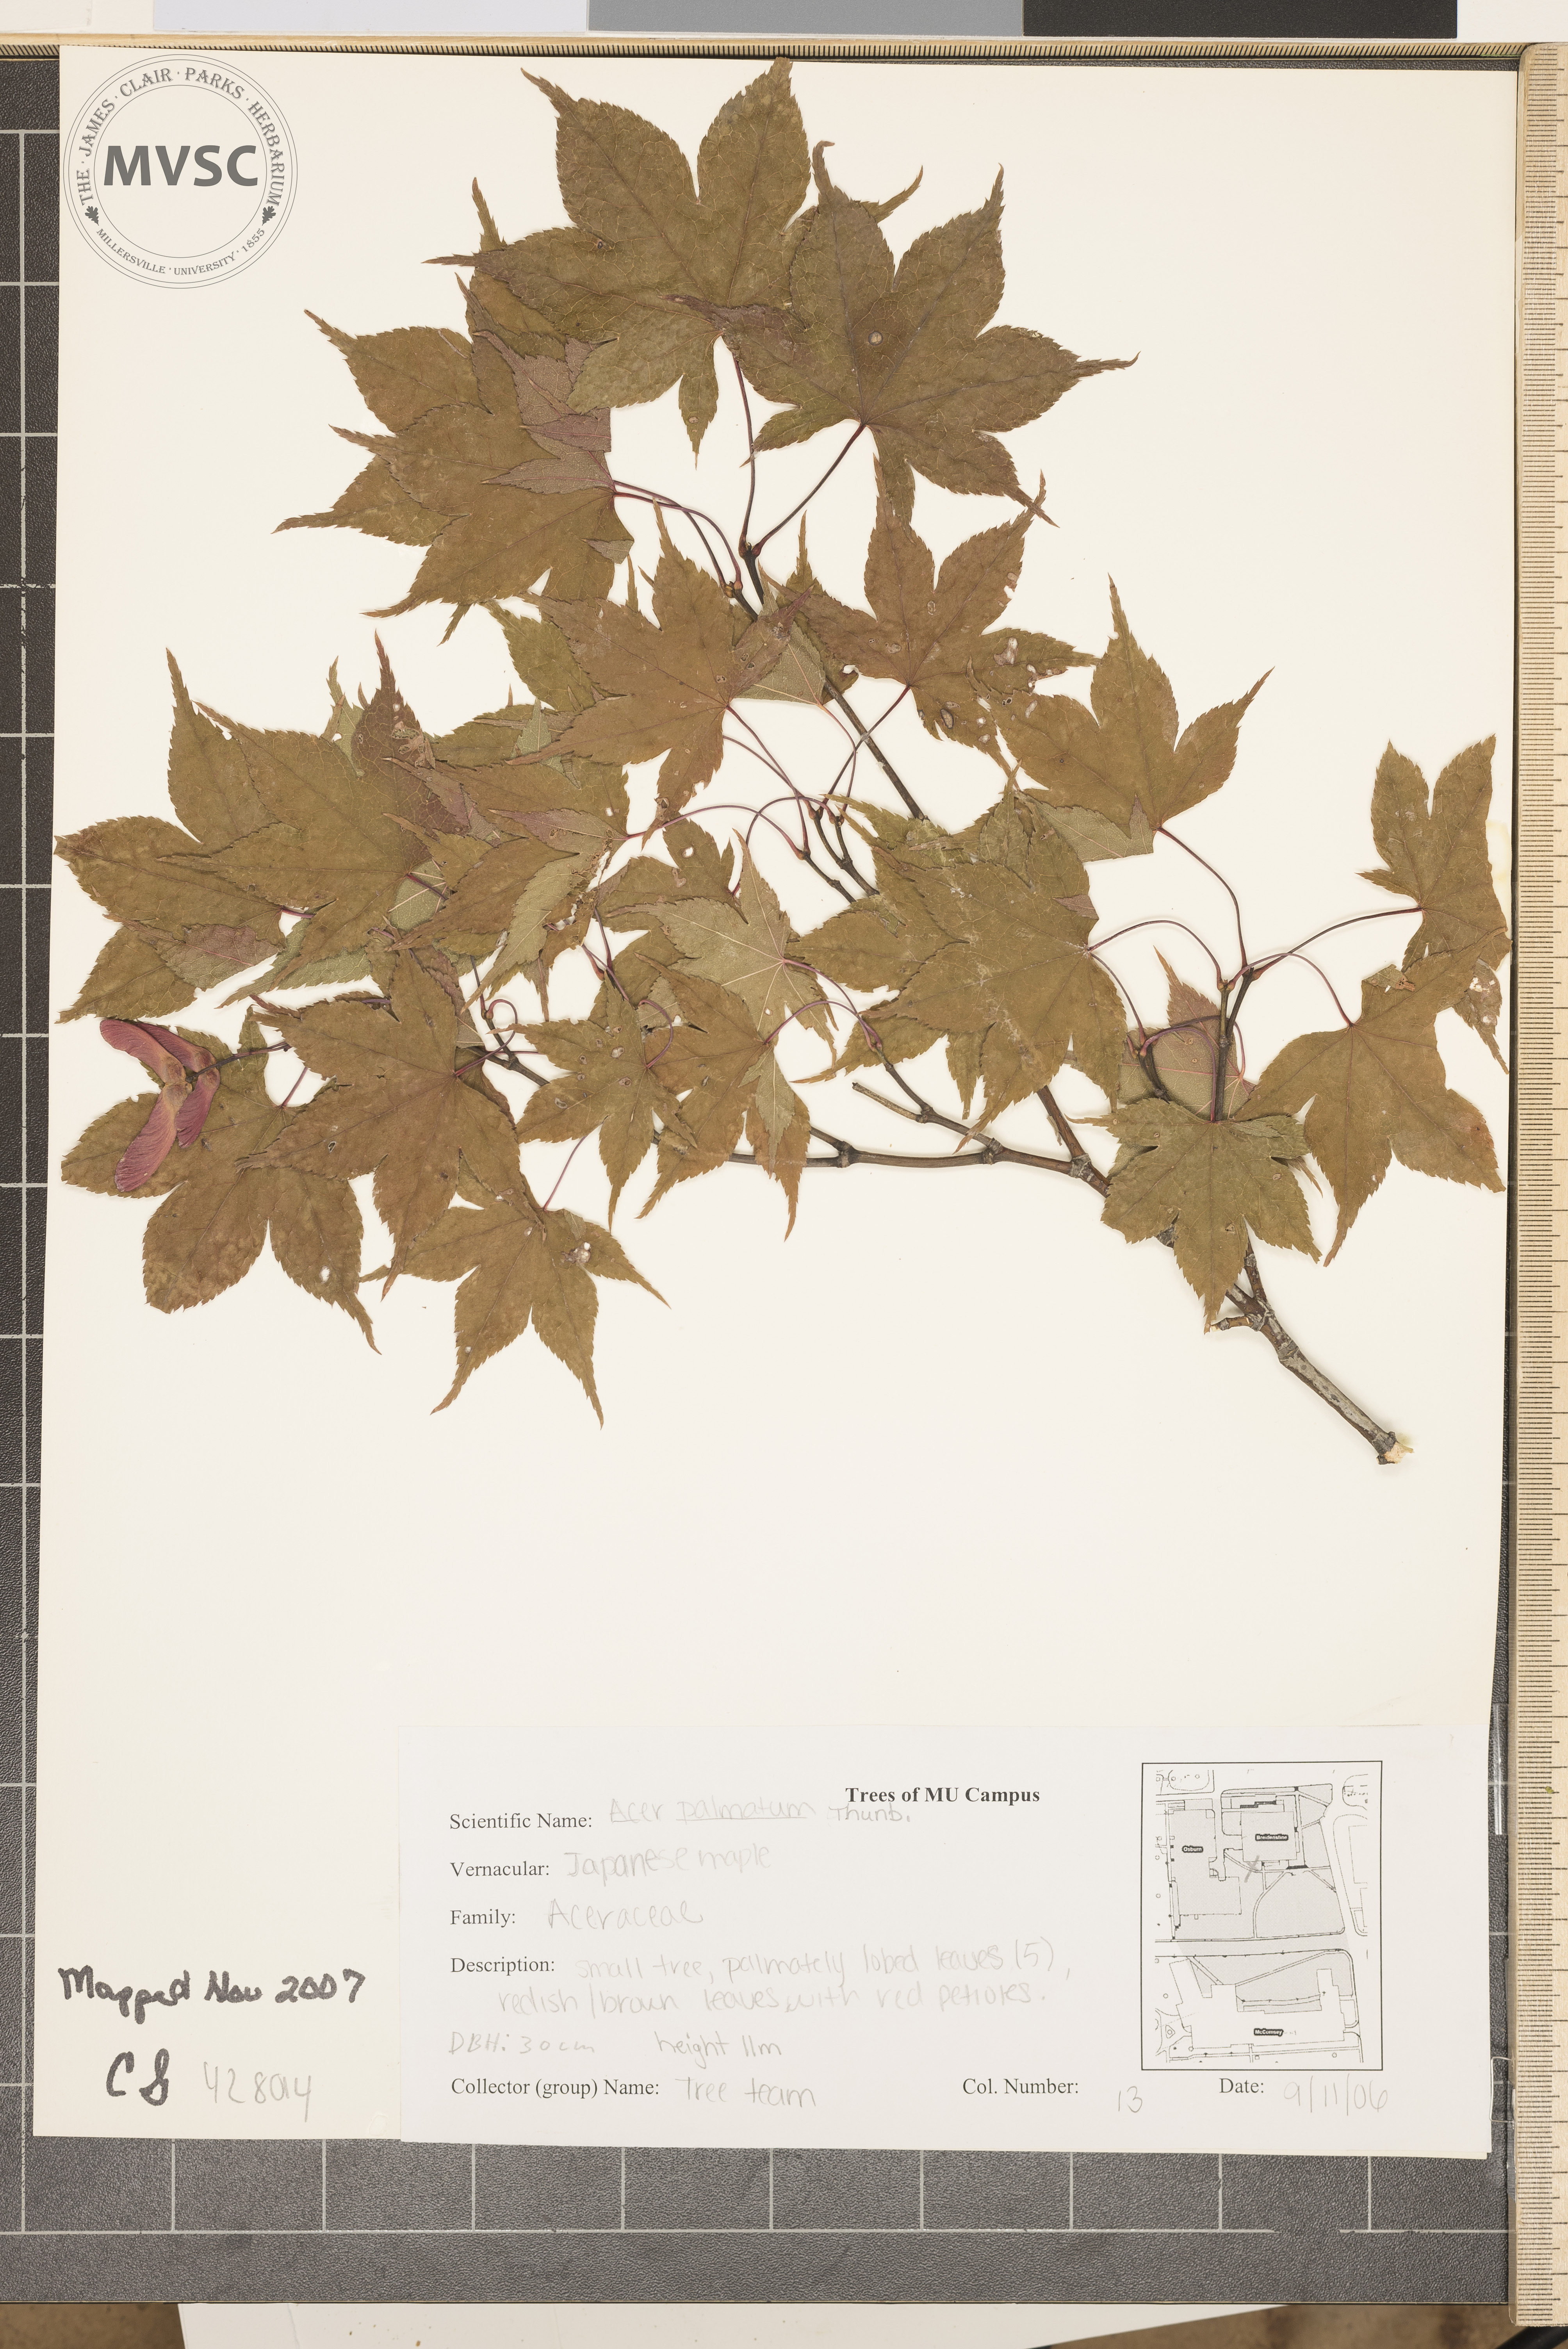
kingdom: Plantae
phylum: Tracheophyta
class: Magnoliopsida
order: Sapindales
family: Sapindaceae
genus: Acer
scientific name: Acer palmatum
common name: Japanese Maple
